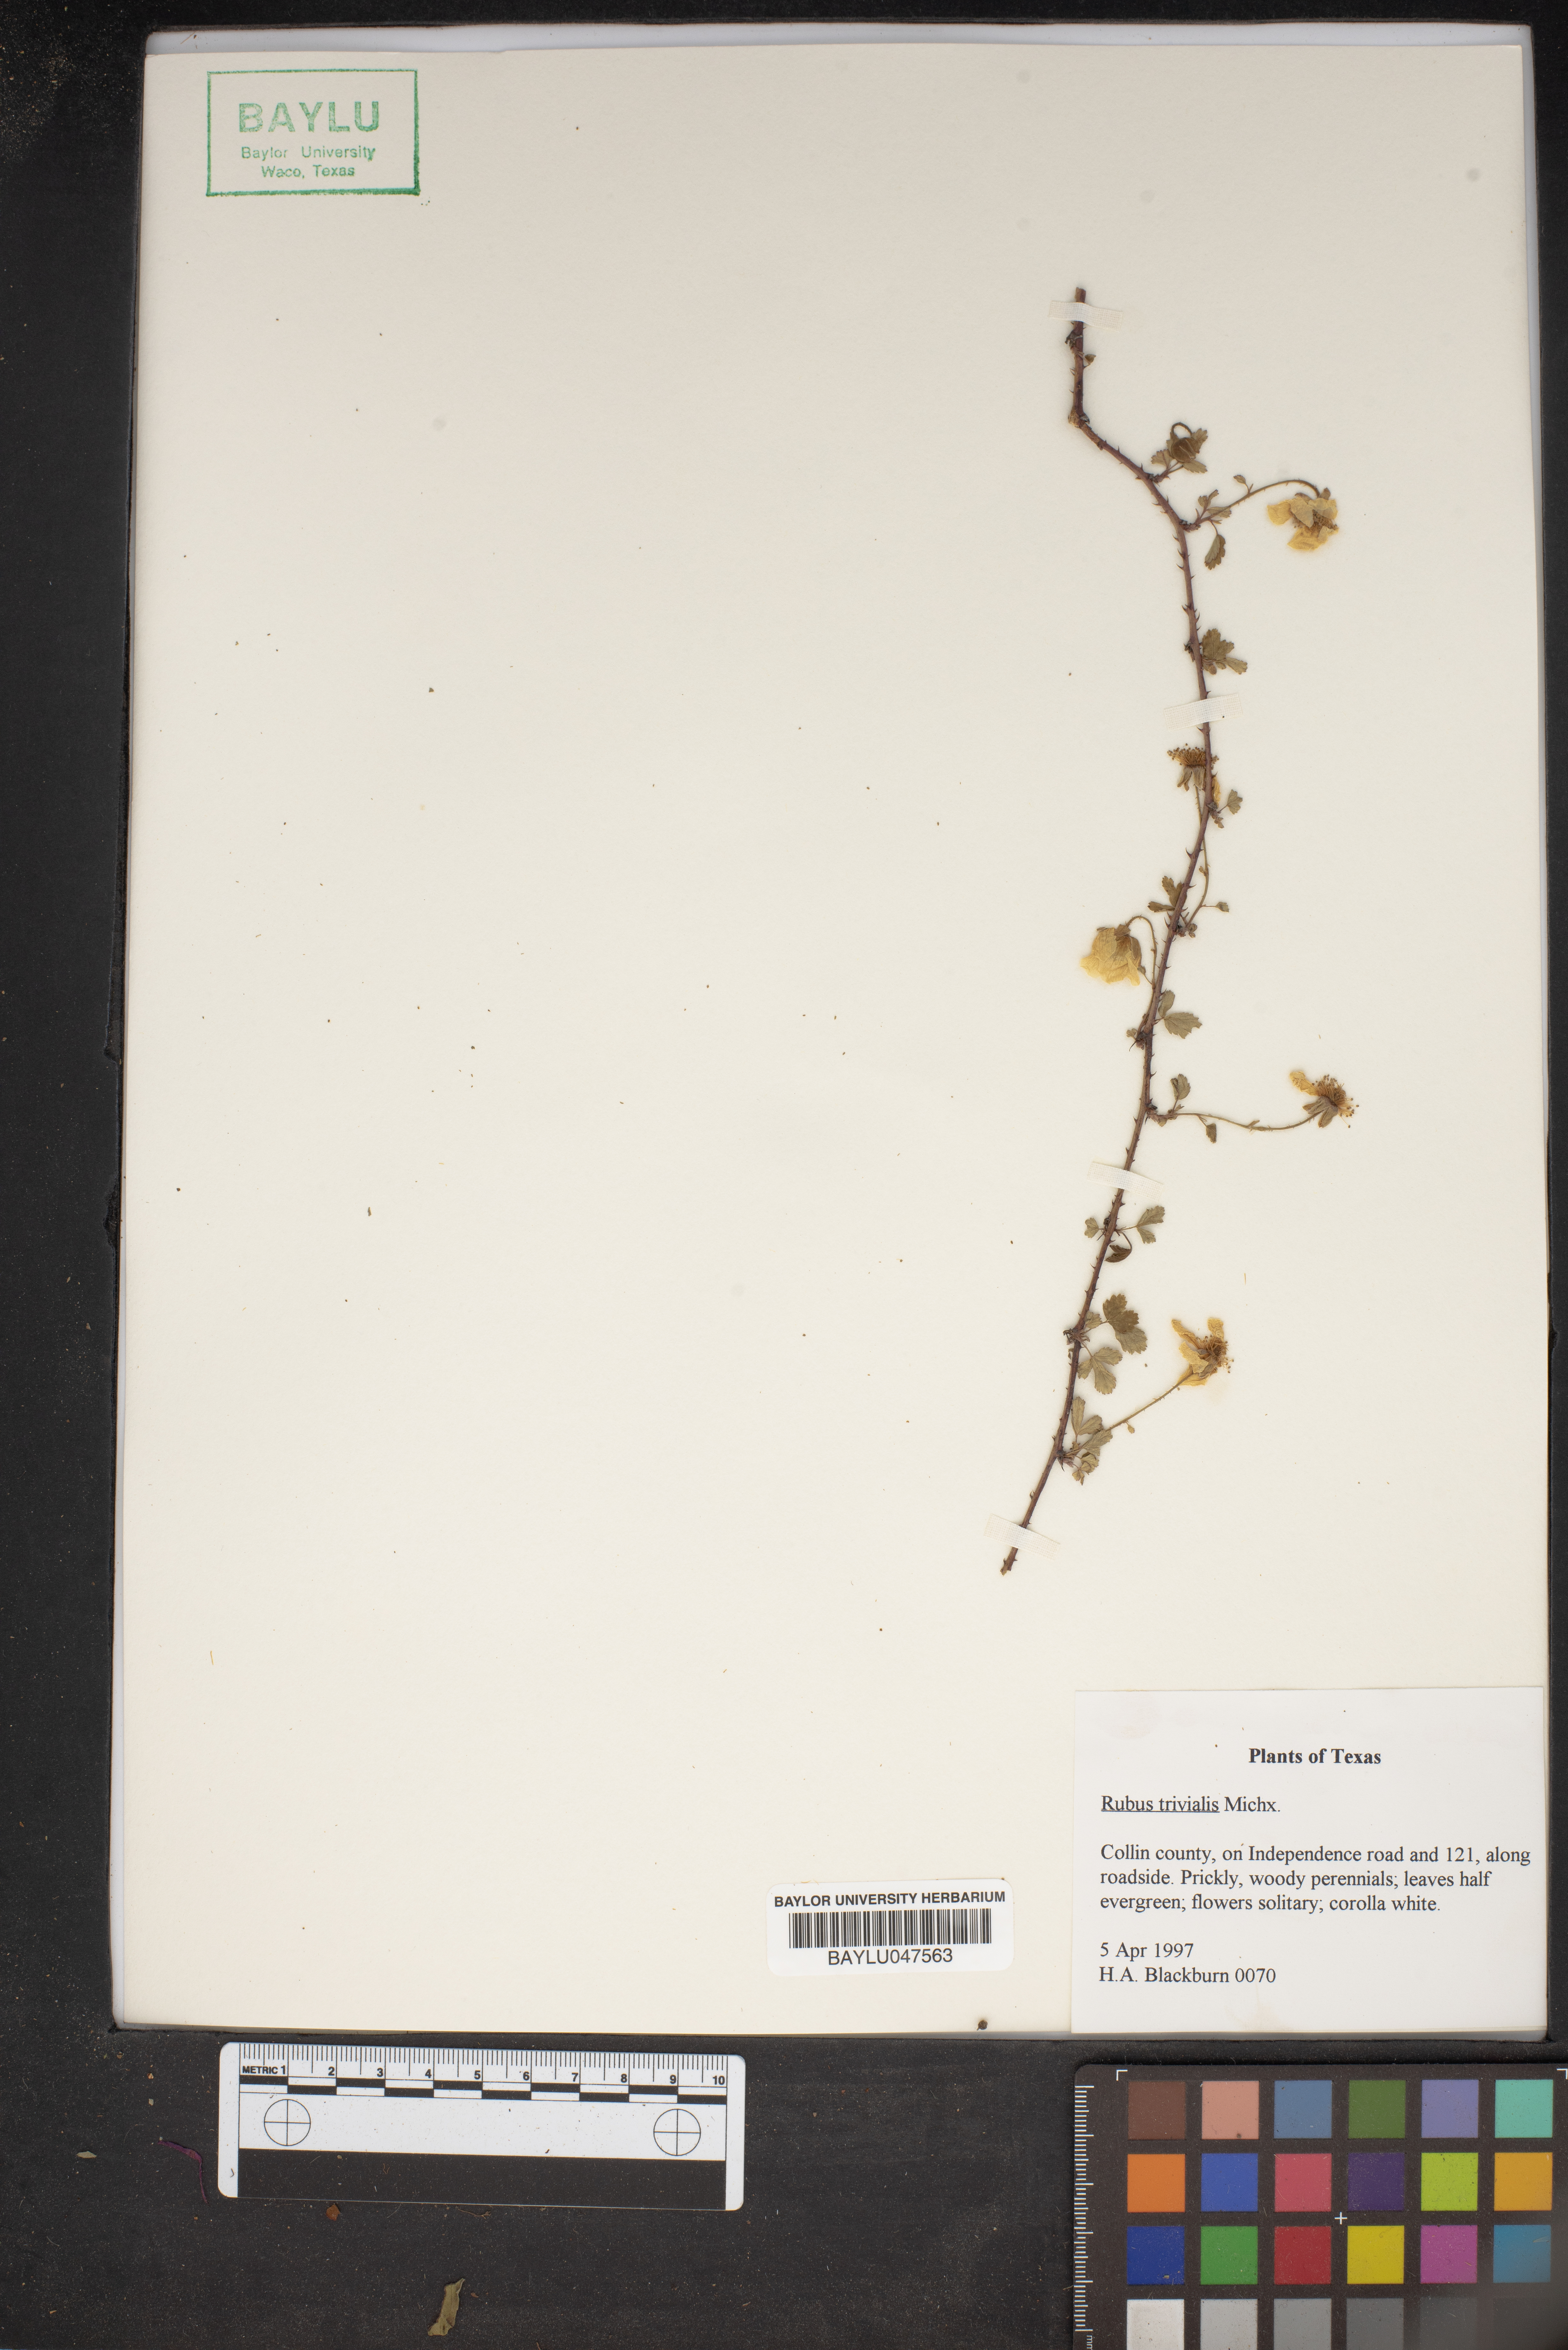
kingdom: Plantae
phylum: Tracheophyta
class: Magnoliopsida
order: Rosales
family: Rosaceae
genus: Rubus
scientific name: Rubus trivialis
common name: Southern dewberry
